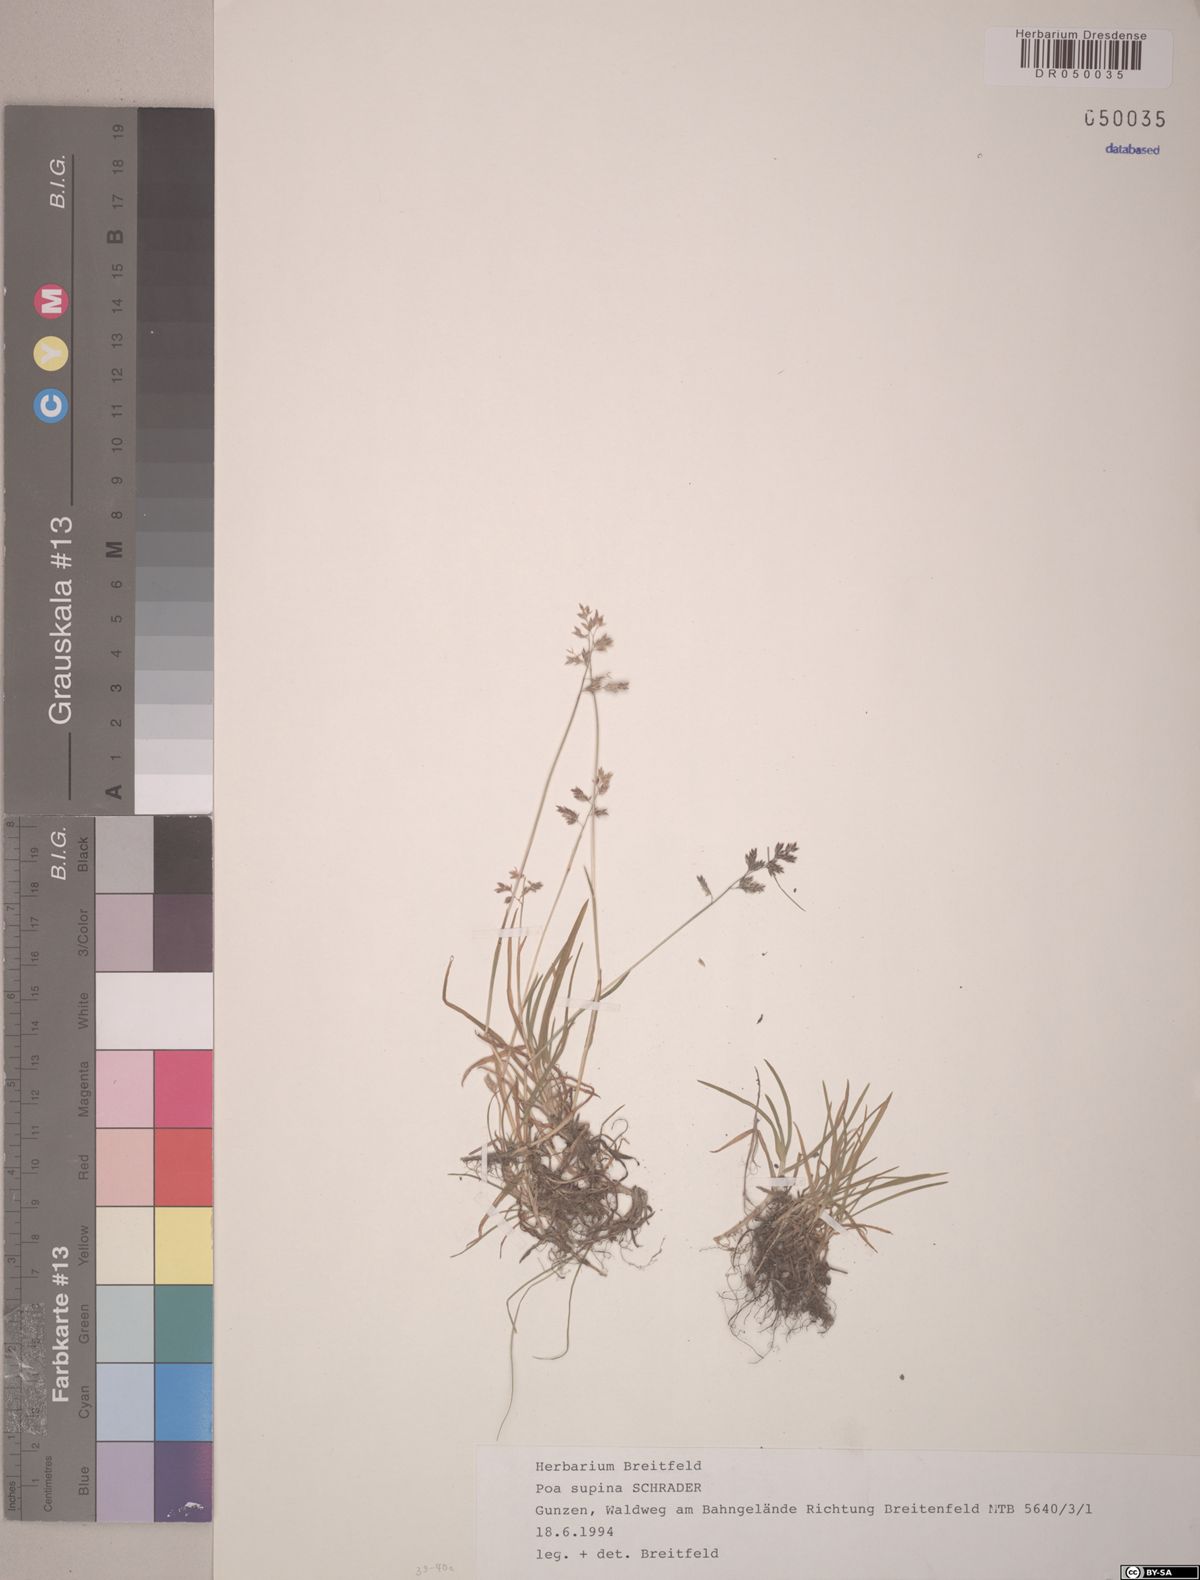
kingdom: Plantae
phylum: Tracheophyta
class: Liliopsida
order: Poales
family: Poaceae
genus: Poa
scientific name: Poa supina
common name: Supina bluegrass
